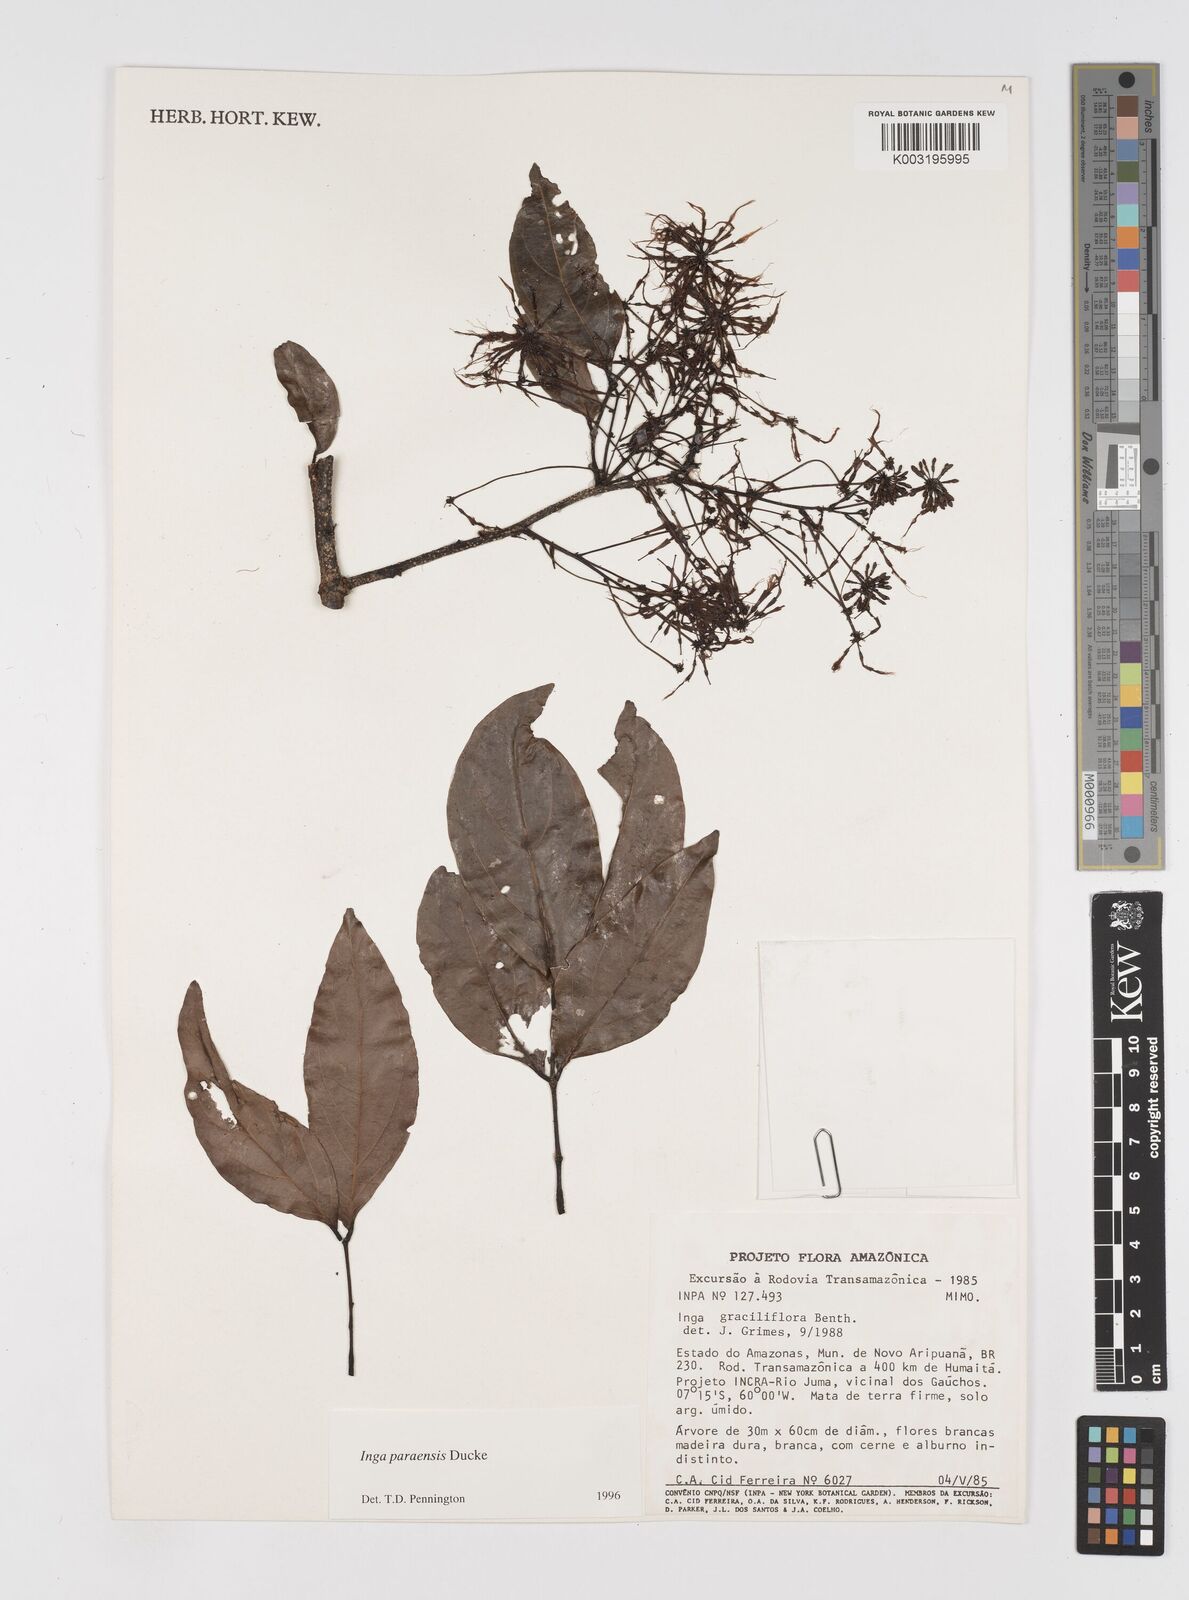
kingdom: Plantae
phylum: Tracheophyta
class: Magnoliopsida
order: Fabales
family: Fabaceae
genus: Inga
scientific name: Inga paraensis
